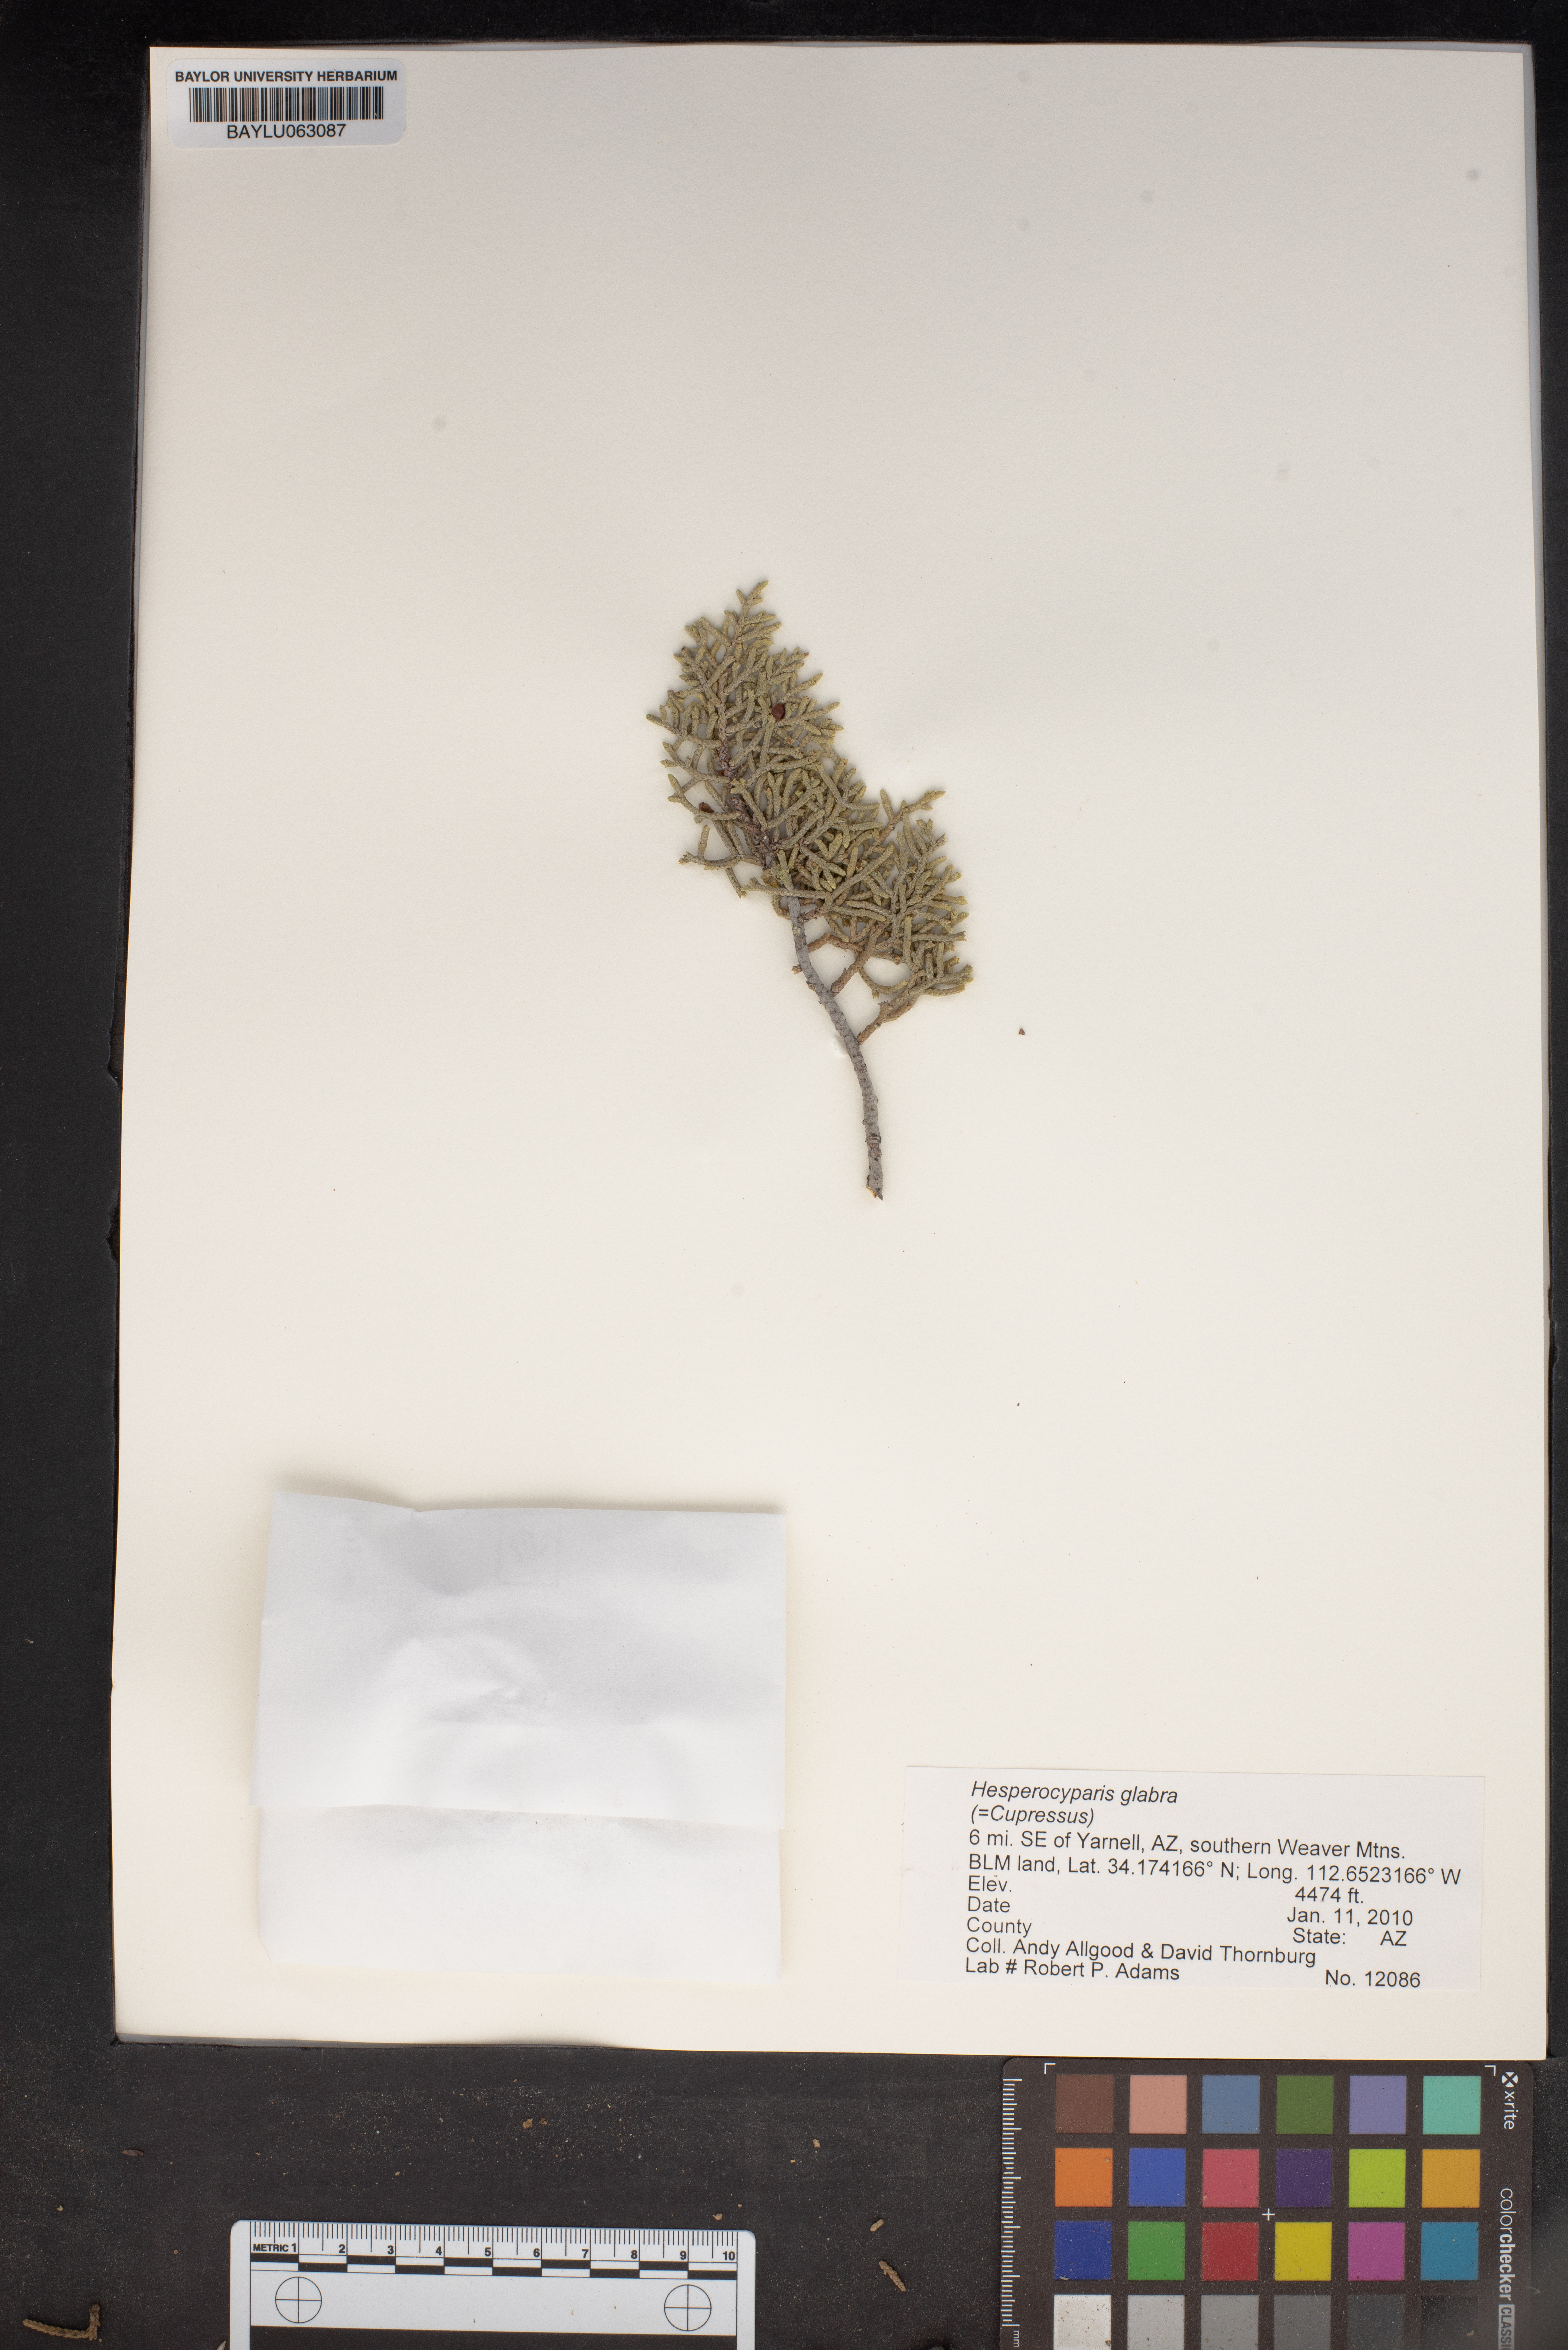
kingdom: Plantae
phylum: Tracheophyta
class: Pinopsida
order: Pinales
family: Cupressaceae
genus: Cupressus
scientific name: Cupressus arizonica
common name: Arizona cypress
